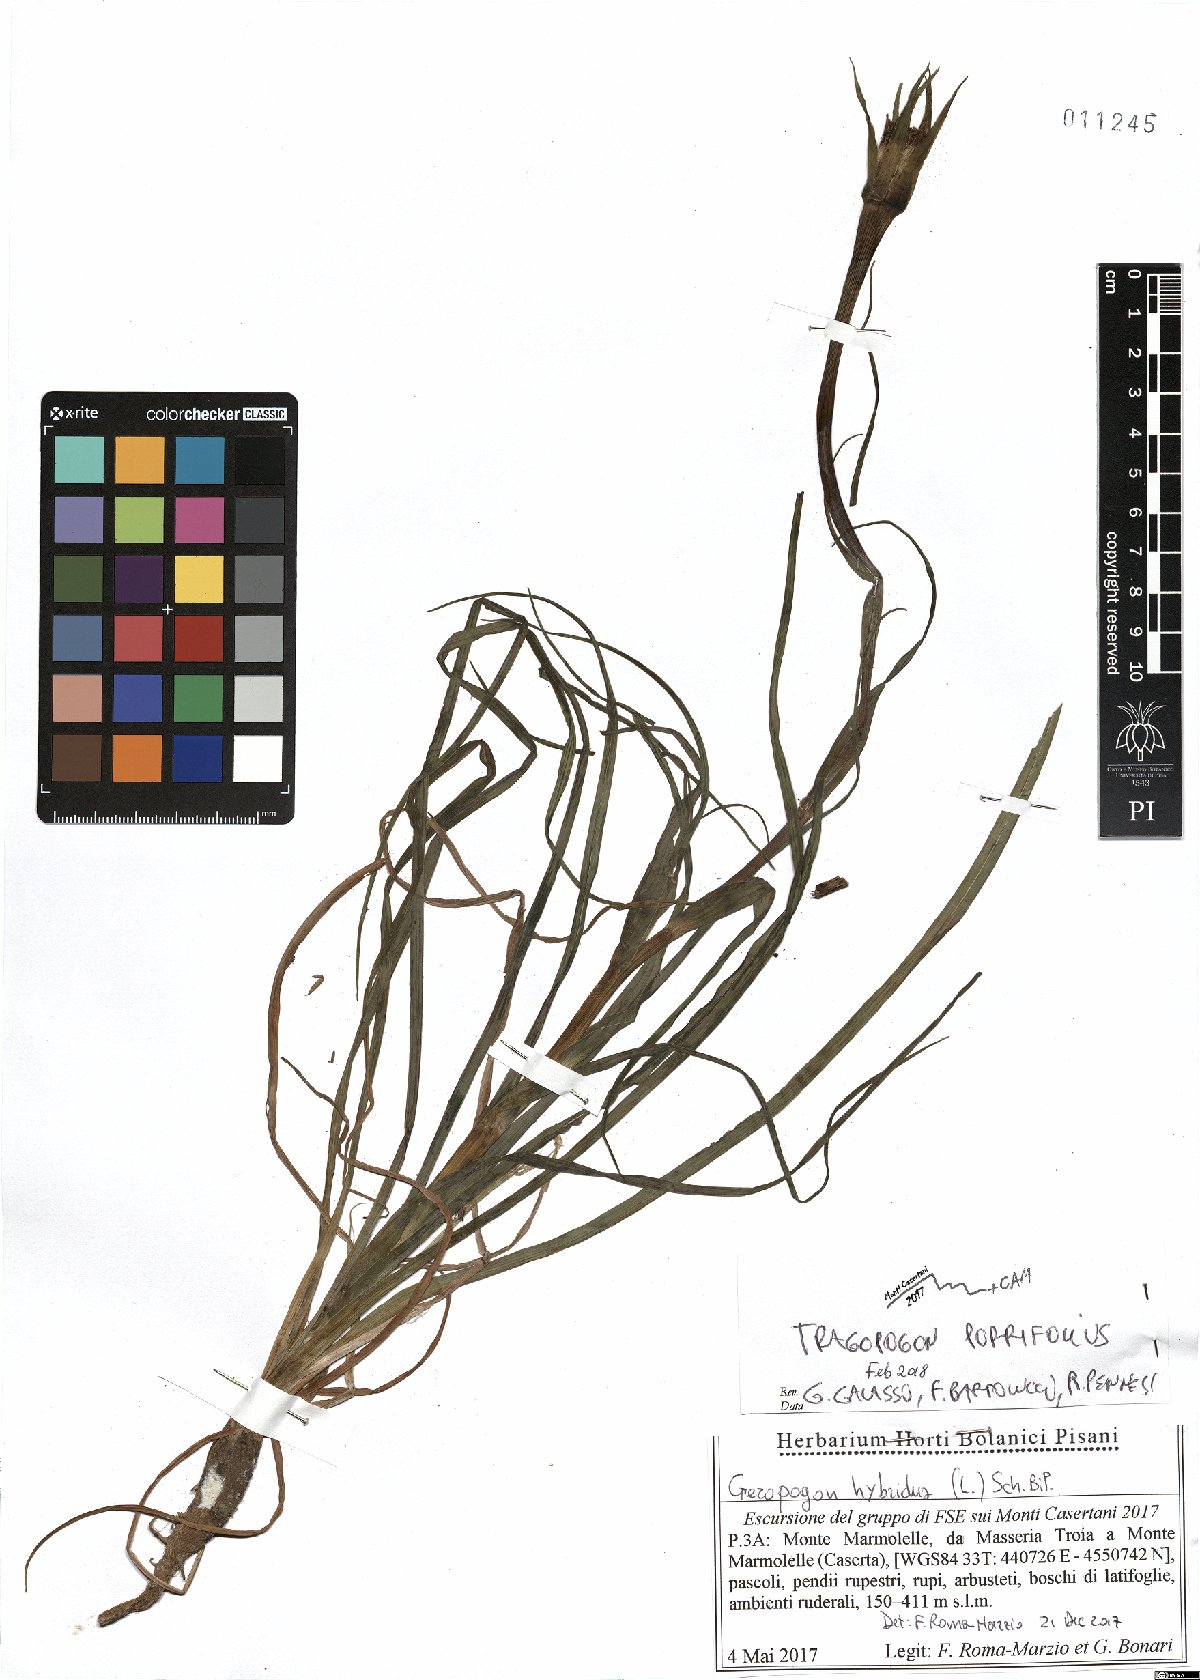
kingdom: Plantae
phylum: Tracheophyta
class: Magnoliopsida
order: Asterales
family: Asteraceae
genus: Tragopogon
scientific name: Tragopogon porrifolius
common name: Salsify
